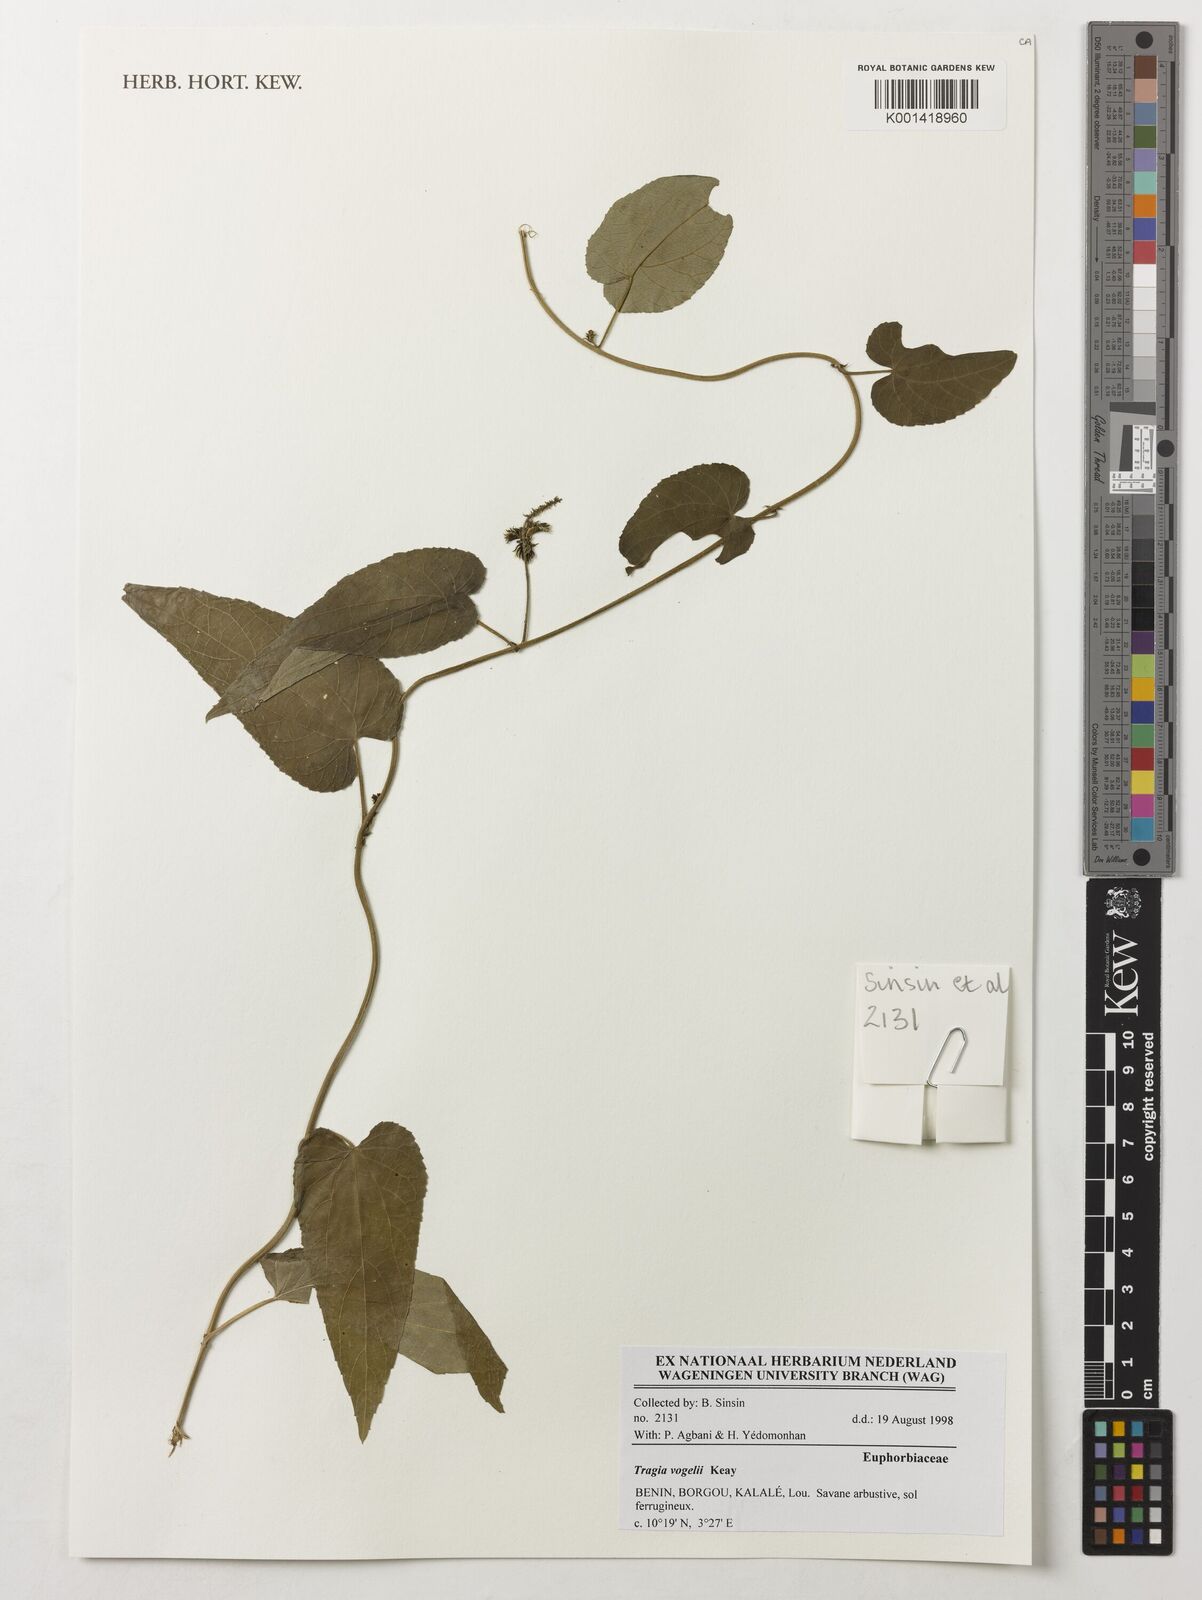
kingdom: Plantae
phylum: Tracheophyta
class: Magnoliopsida
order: Malpighiales
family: Euphorbiaceae
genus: Tragia
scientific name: Tragia vogelii
